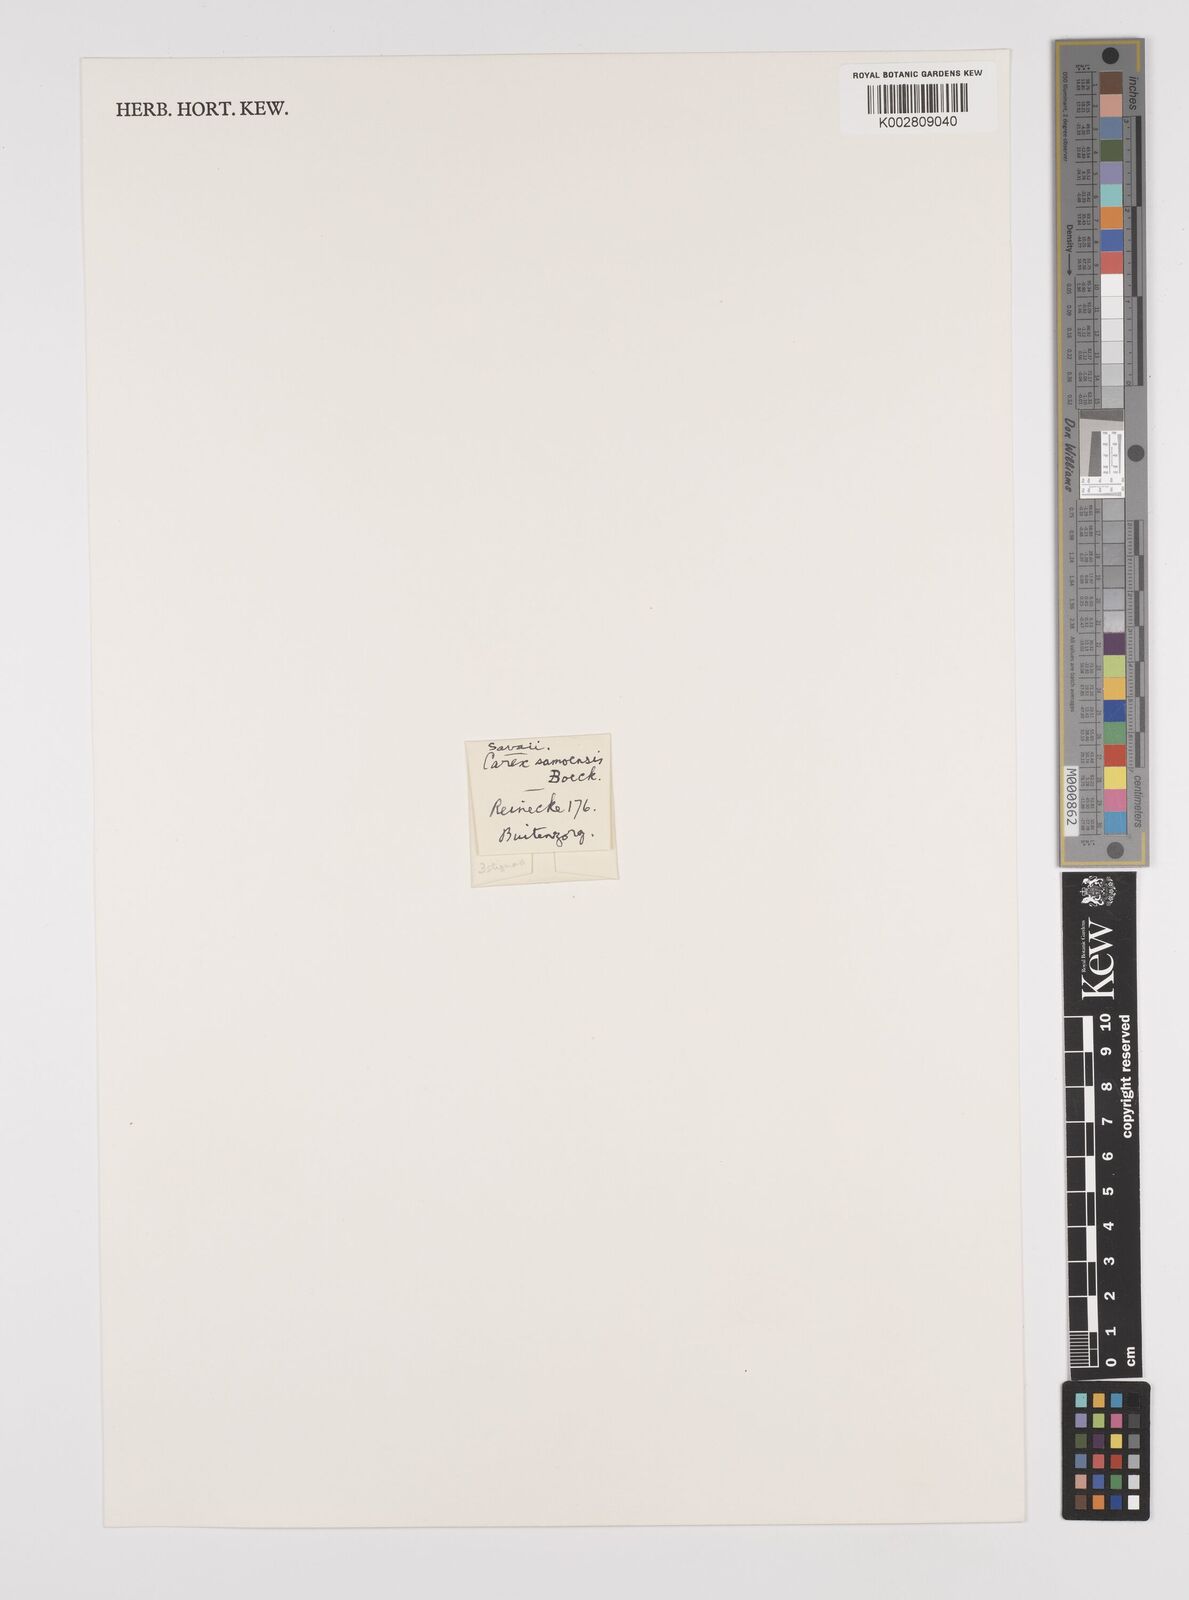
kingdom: Plantae
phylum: Tracheophyta
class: Liliopsida
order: Poales
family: Cyperaceae
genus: Carex
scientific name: Carex maculata
